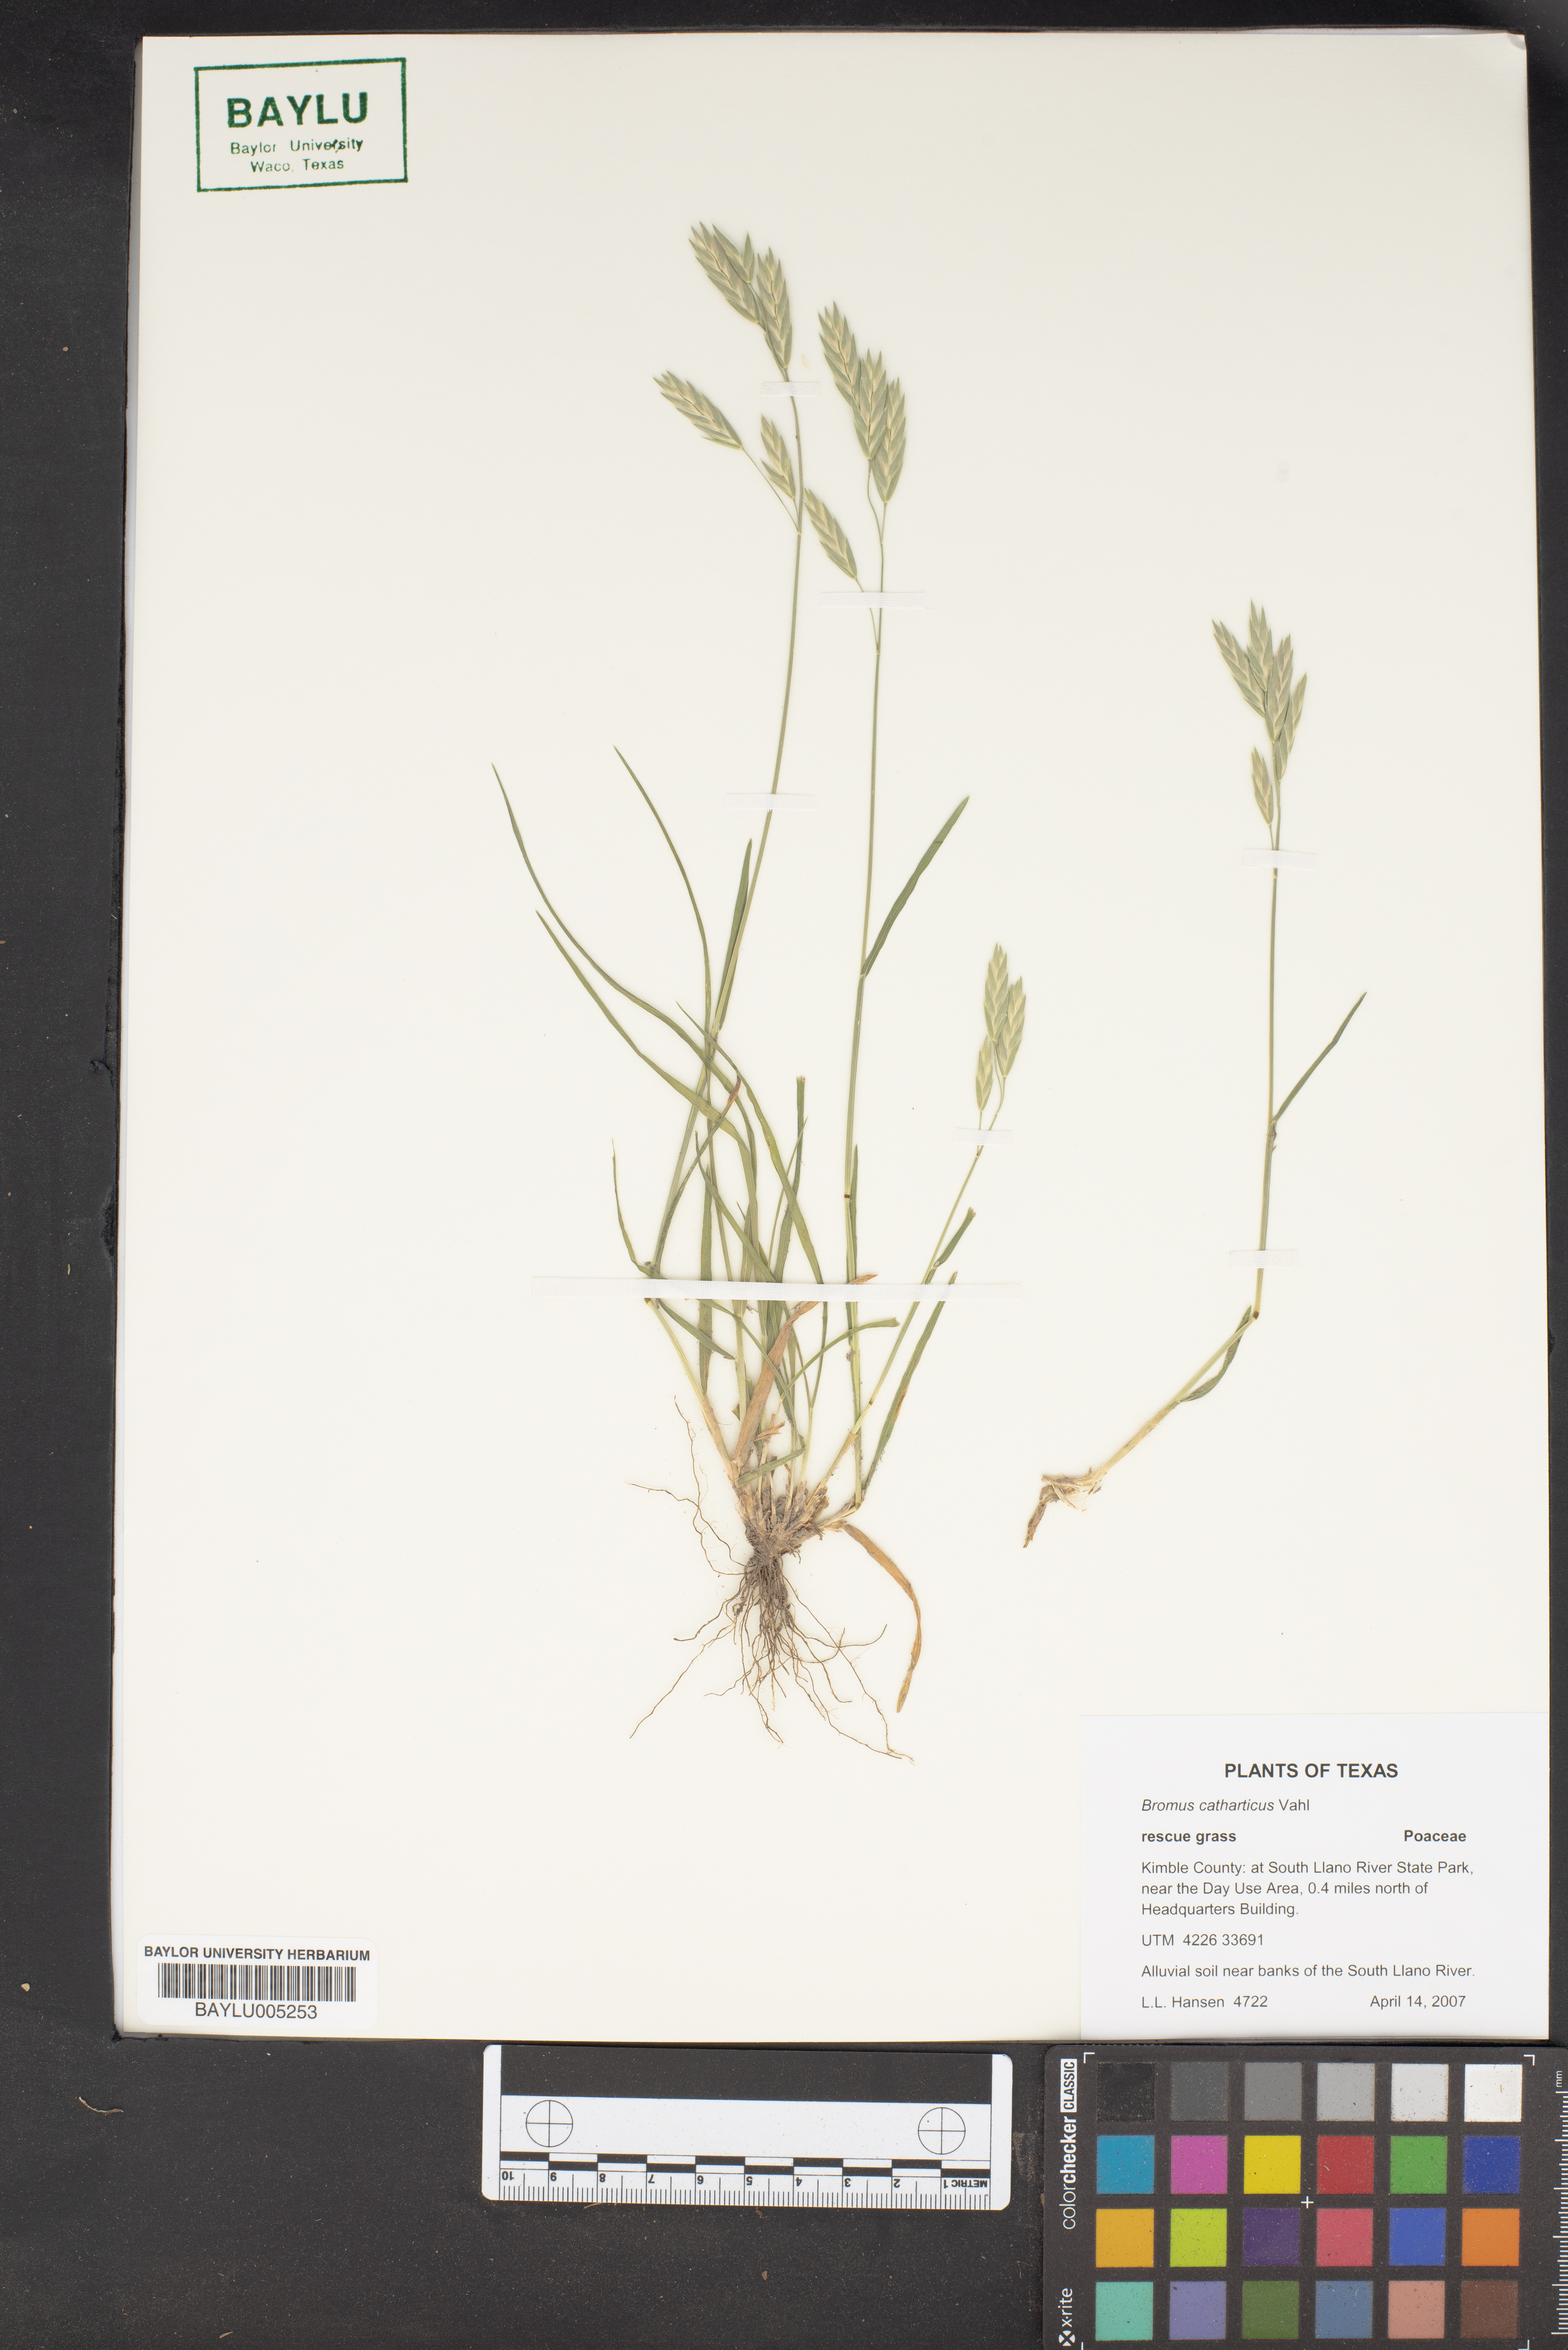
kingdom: Plantae
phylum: Tracheophyta
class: Liliopsida
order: Poales
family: Poaceae
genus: Bromus
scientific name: Bromus catharticus
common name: Rescuegrass
